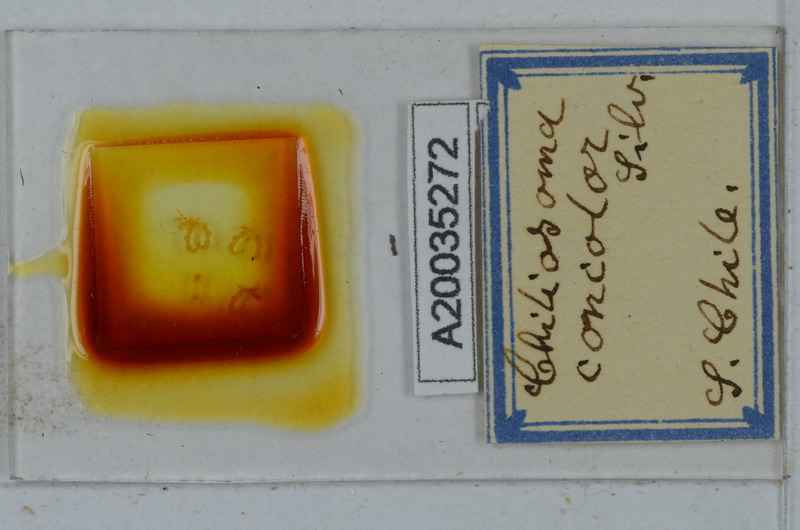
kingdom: Animalia
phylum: Arthropoda
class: Diplopoda
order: Polydesmida
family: Dalodesmidae
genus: Tsagonus
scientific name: Tsagonus muermo
